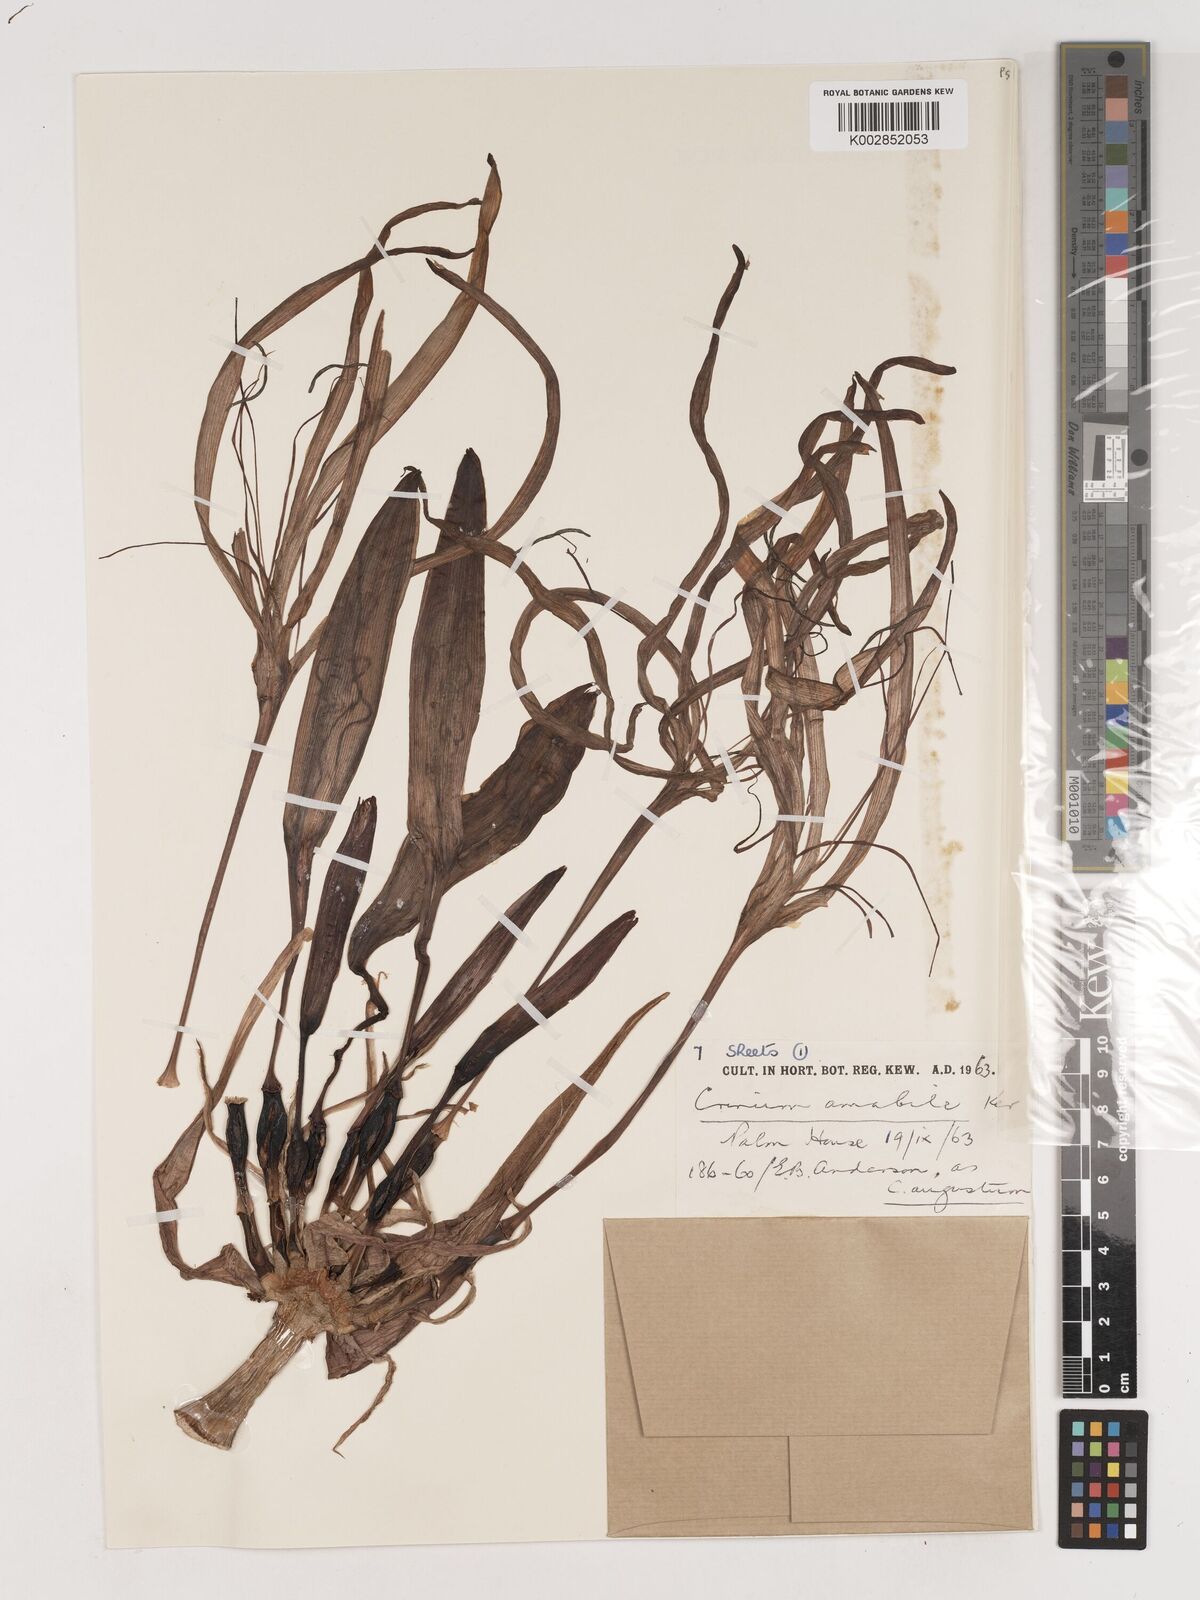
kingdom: Plantae
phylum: Tracheophyta
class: Liliopsida
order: Asparagales
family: Amaryllidaceae
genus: Crinum
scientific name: Crinum amabile
